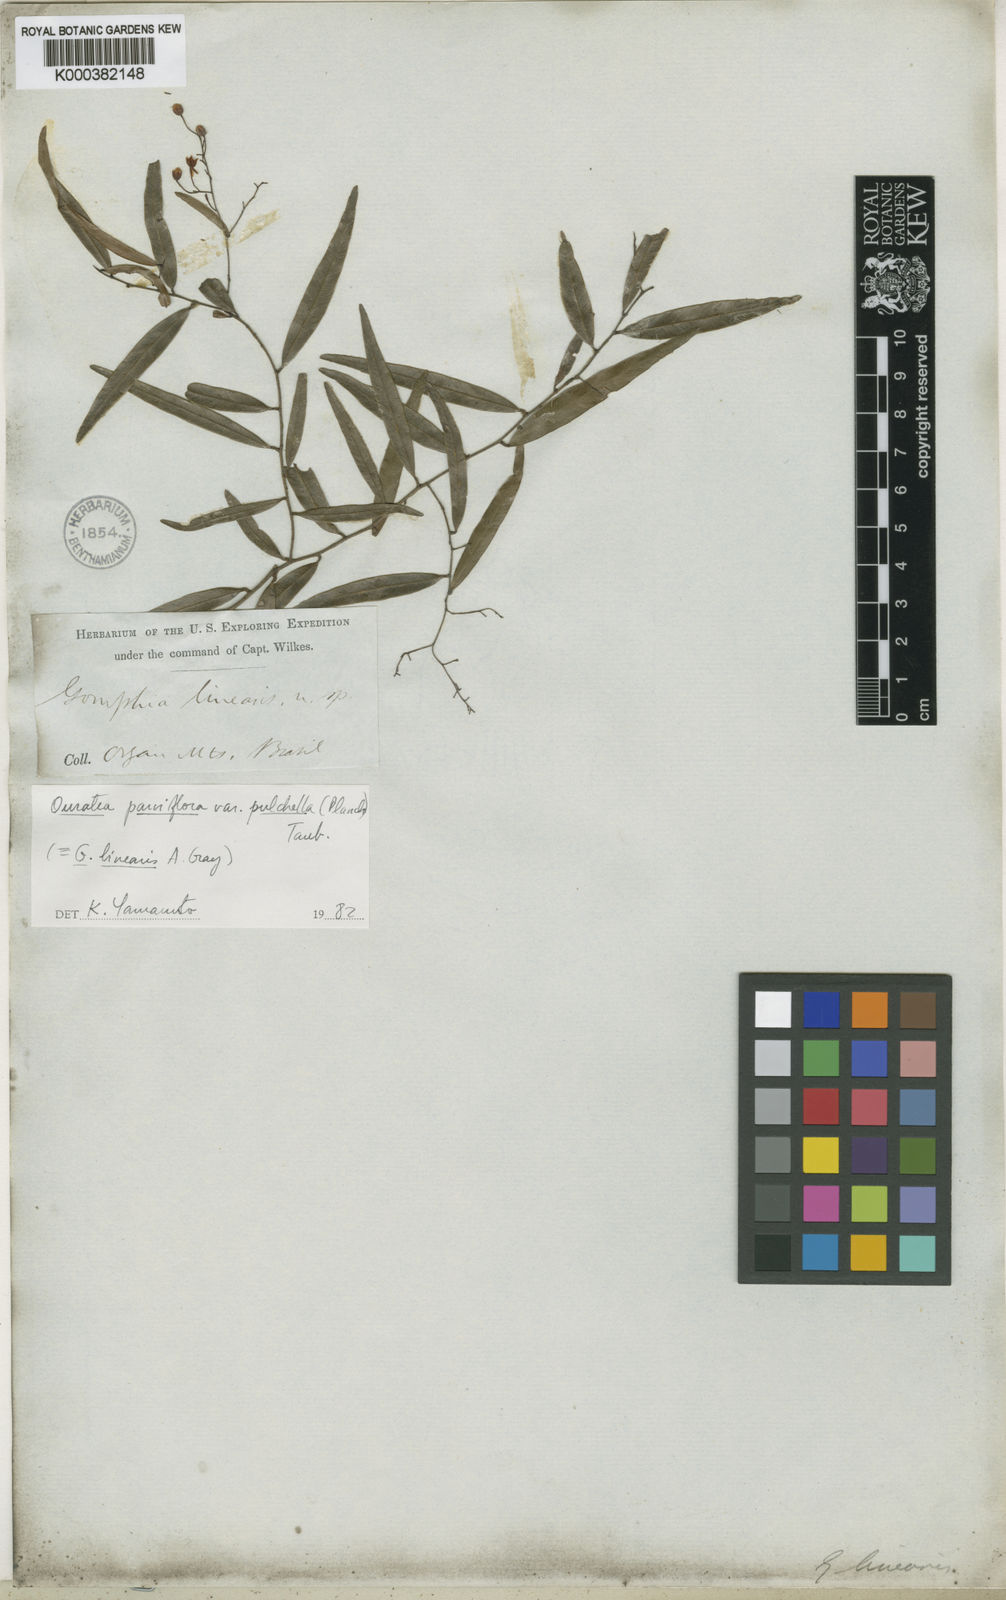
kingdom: Plantae
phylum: Tracheophyta
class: Magnoliopsida
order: Malpighiales
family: Ochnaceae
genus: Ouratea
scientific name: Ouratea pulchella
